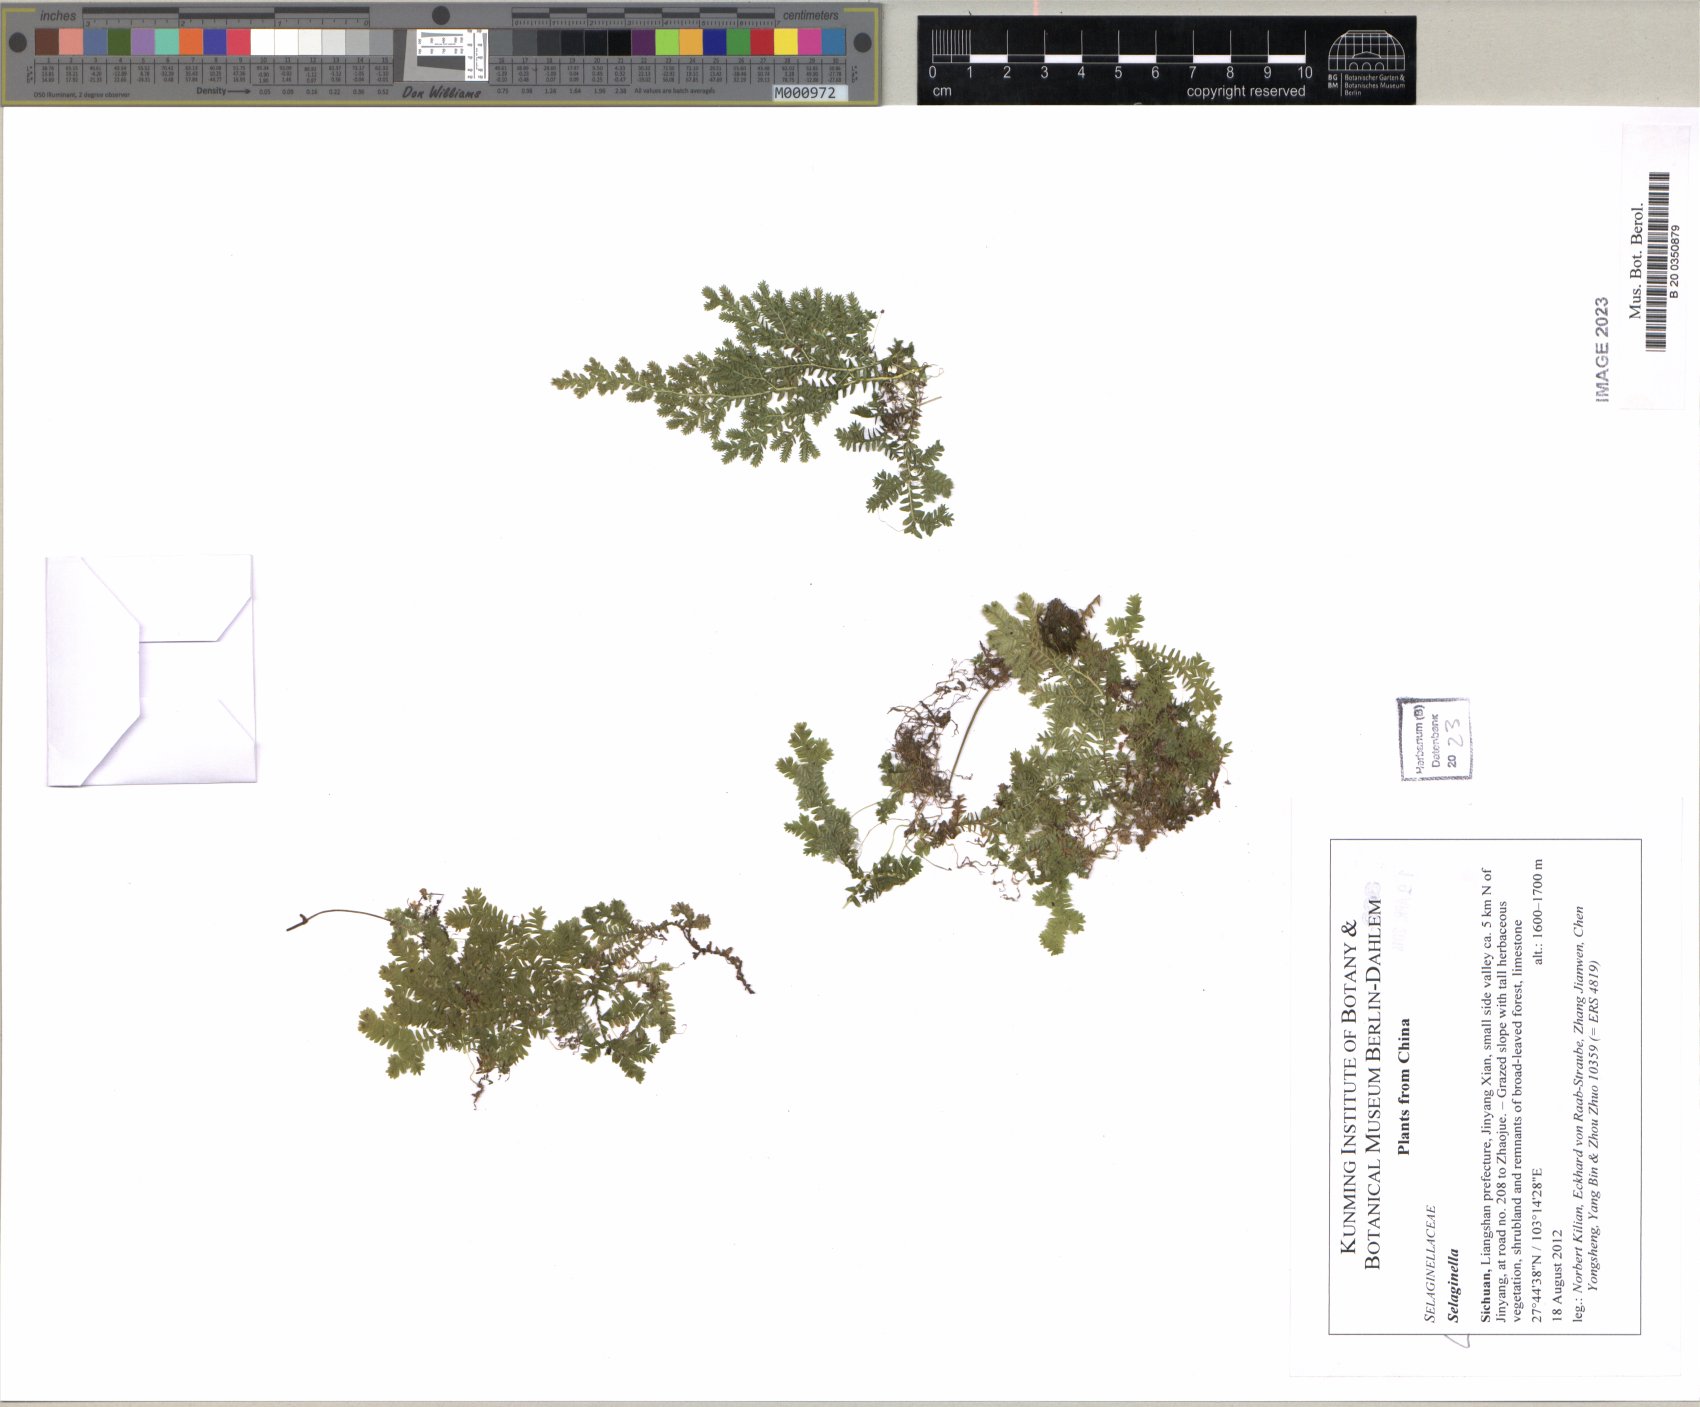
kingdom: Plantae
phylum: Tracheophyta
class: Lycopodiopsida
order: Selaginellales
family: Selaginellaceae
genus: Selaginella
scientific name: Selaginella
